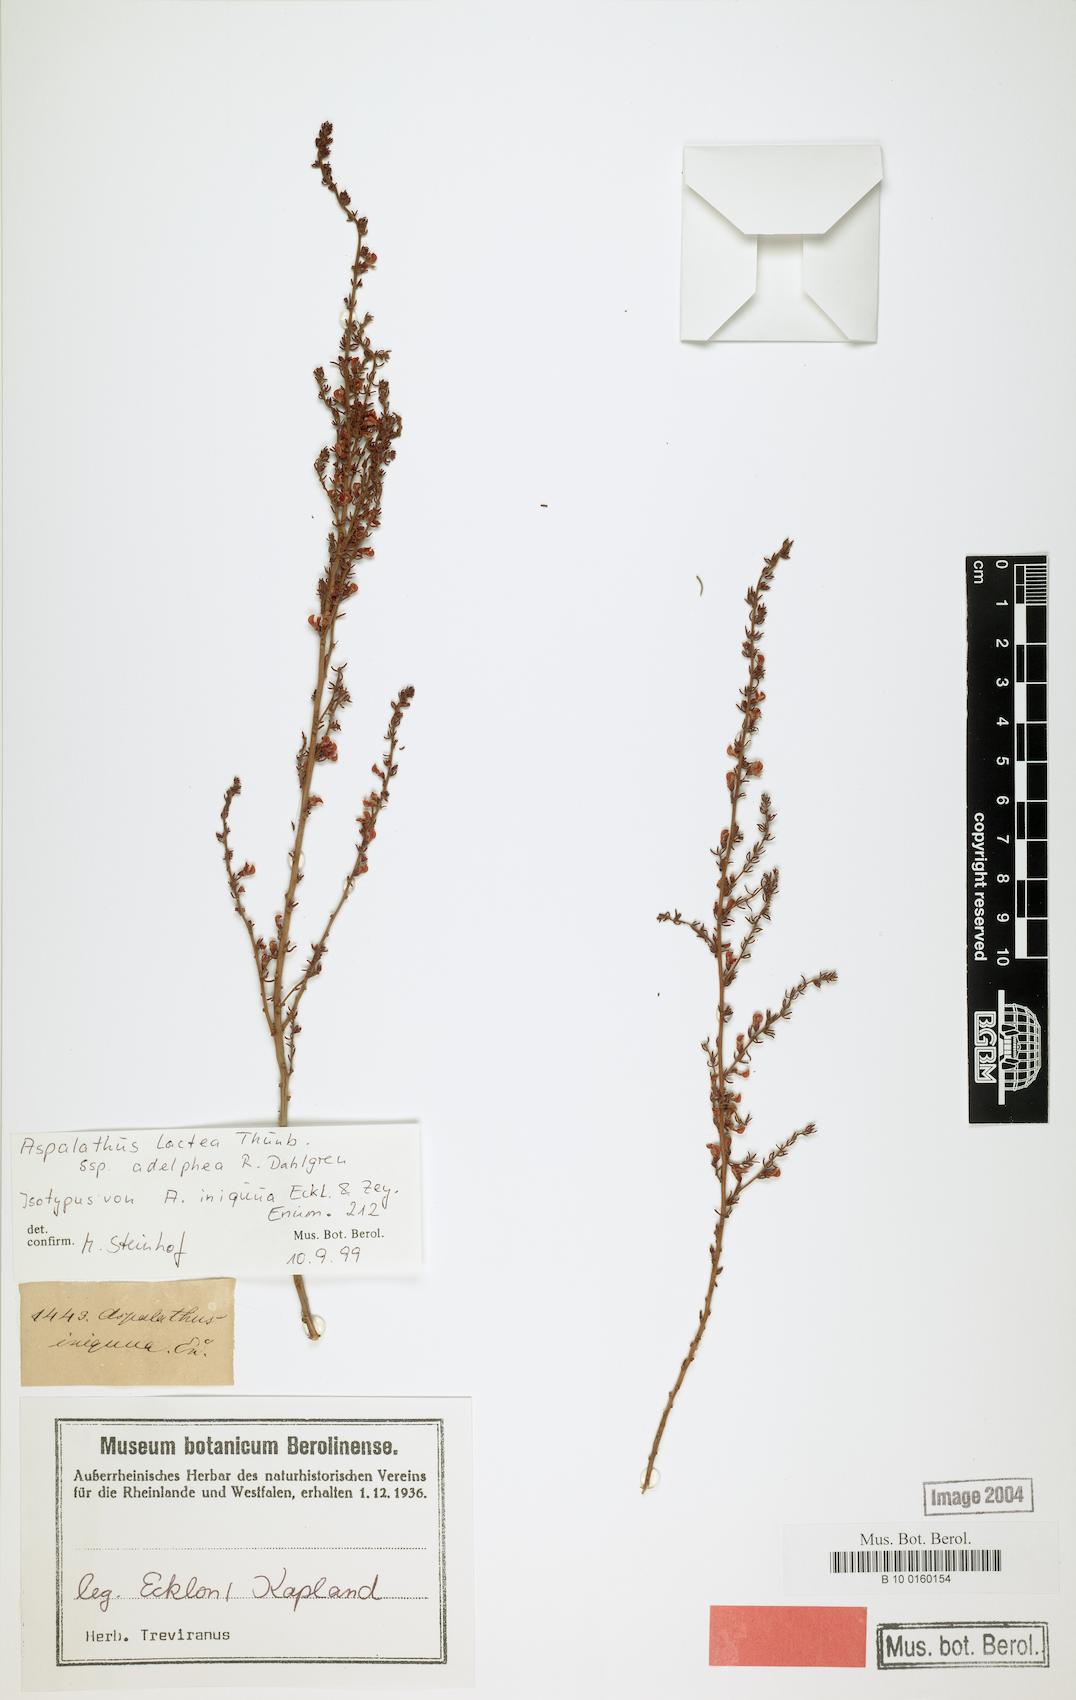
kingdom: Plantae
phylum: Tracheophyta
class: Magnoliopsida
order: Fabales
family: Fabaceae
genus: Aspalathus
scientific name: Aspalathus lactea
